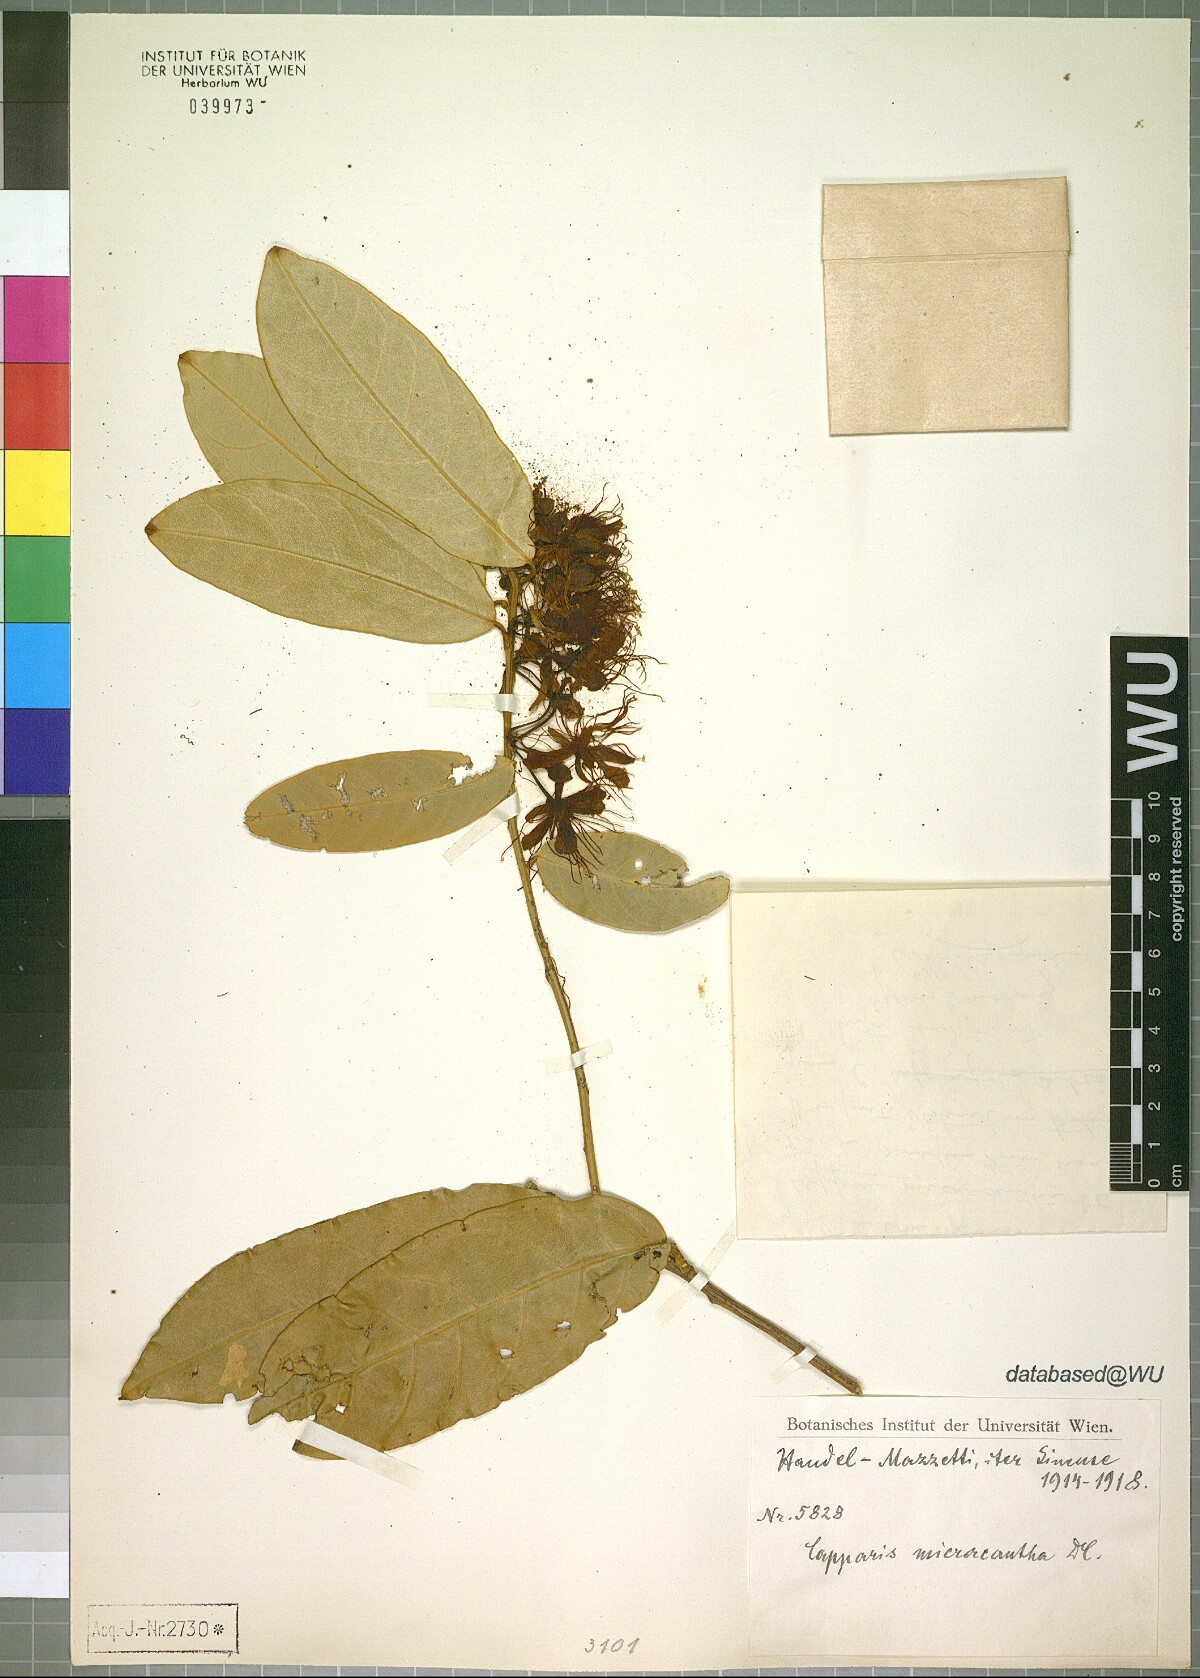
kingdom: Plantae
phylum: Tracheophyta
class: Magnoliopsida
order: Brassicales
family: Capparaceae
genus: Capparis
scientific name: Capparis micracantha
